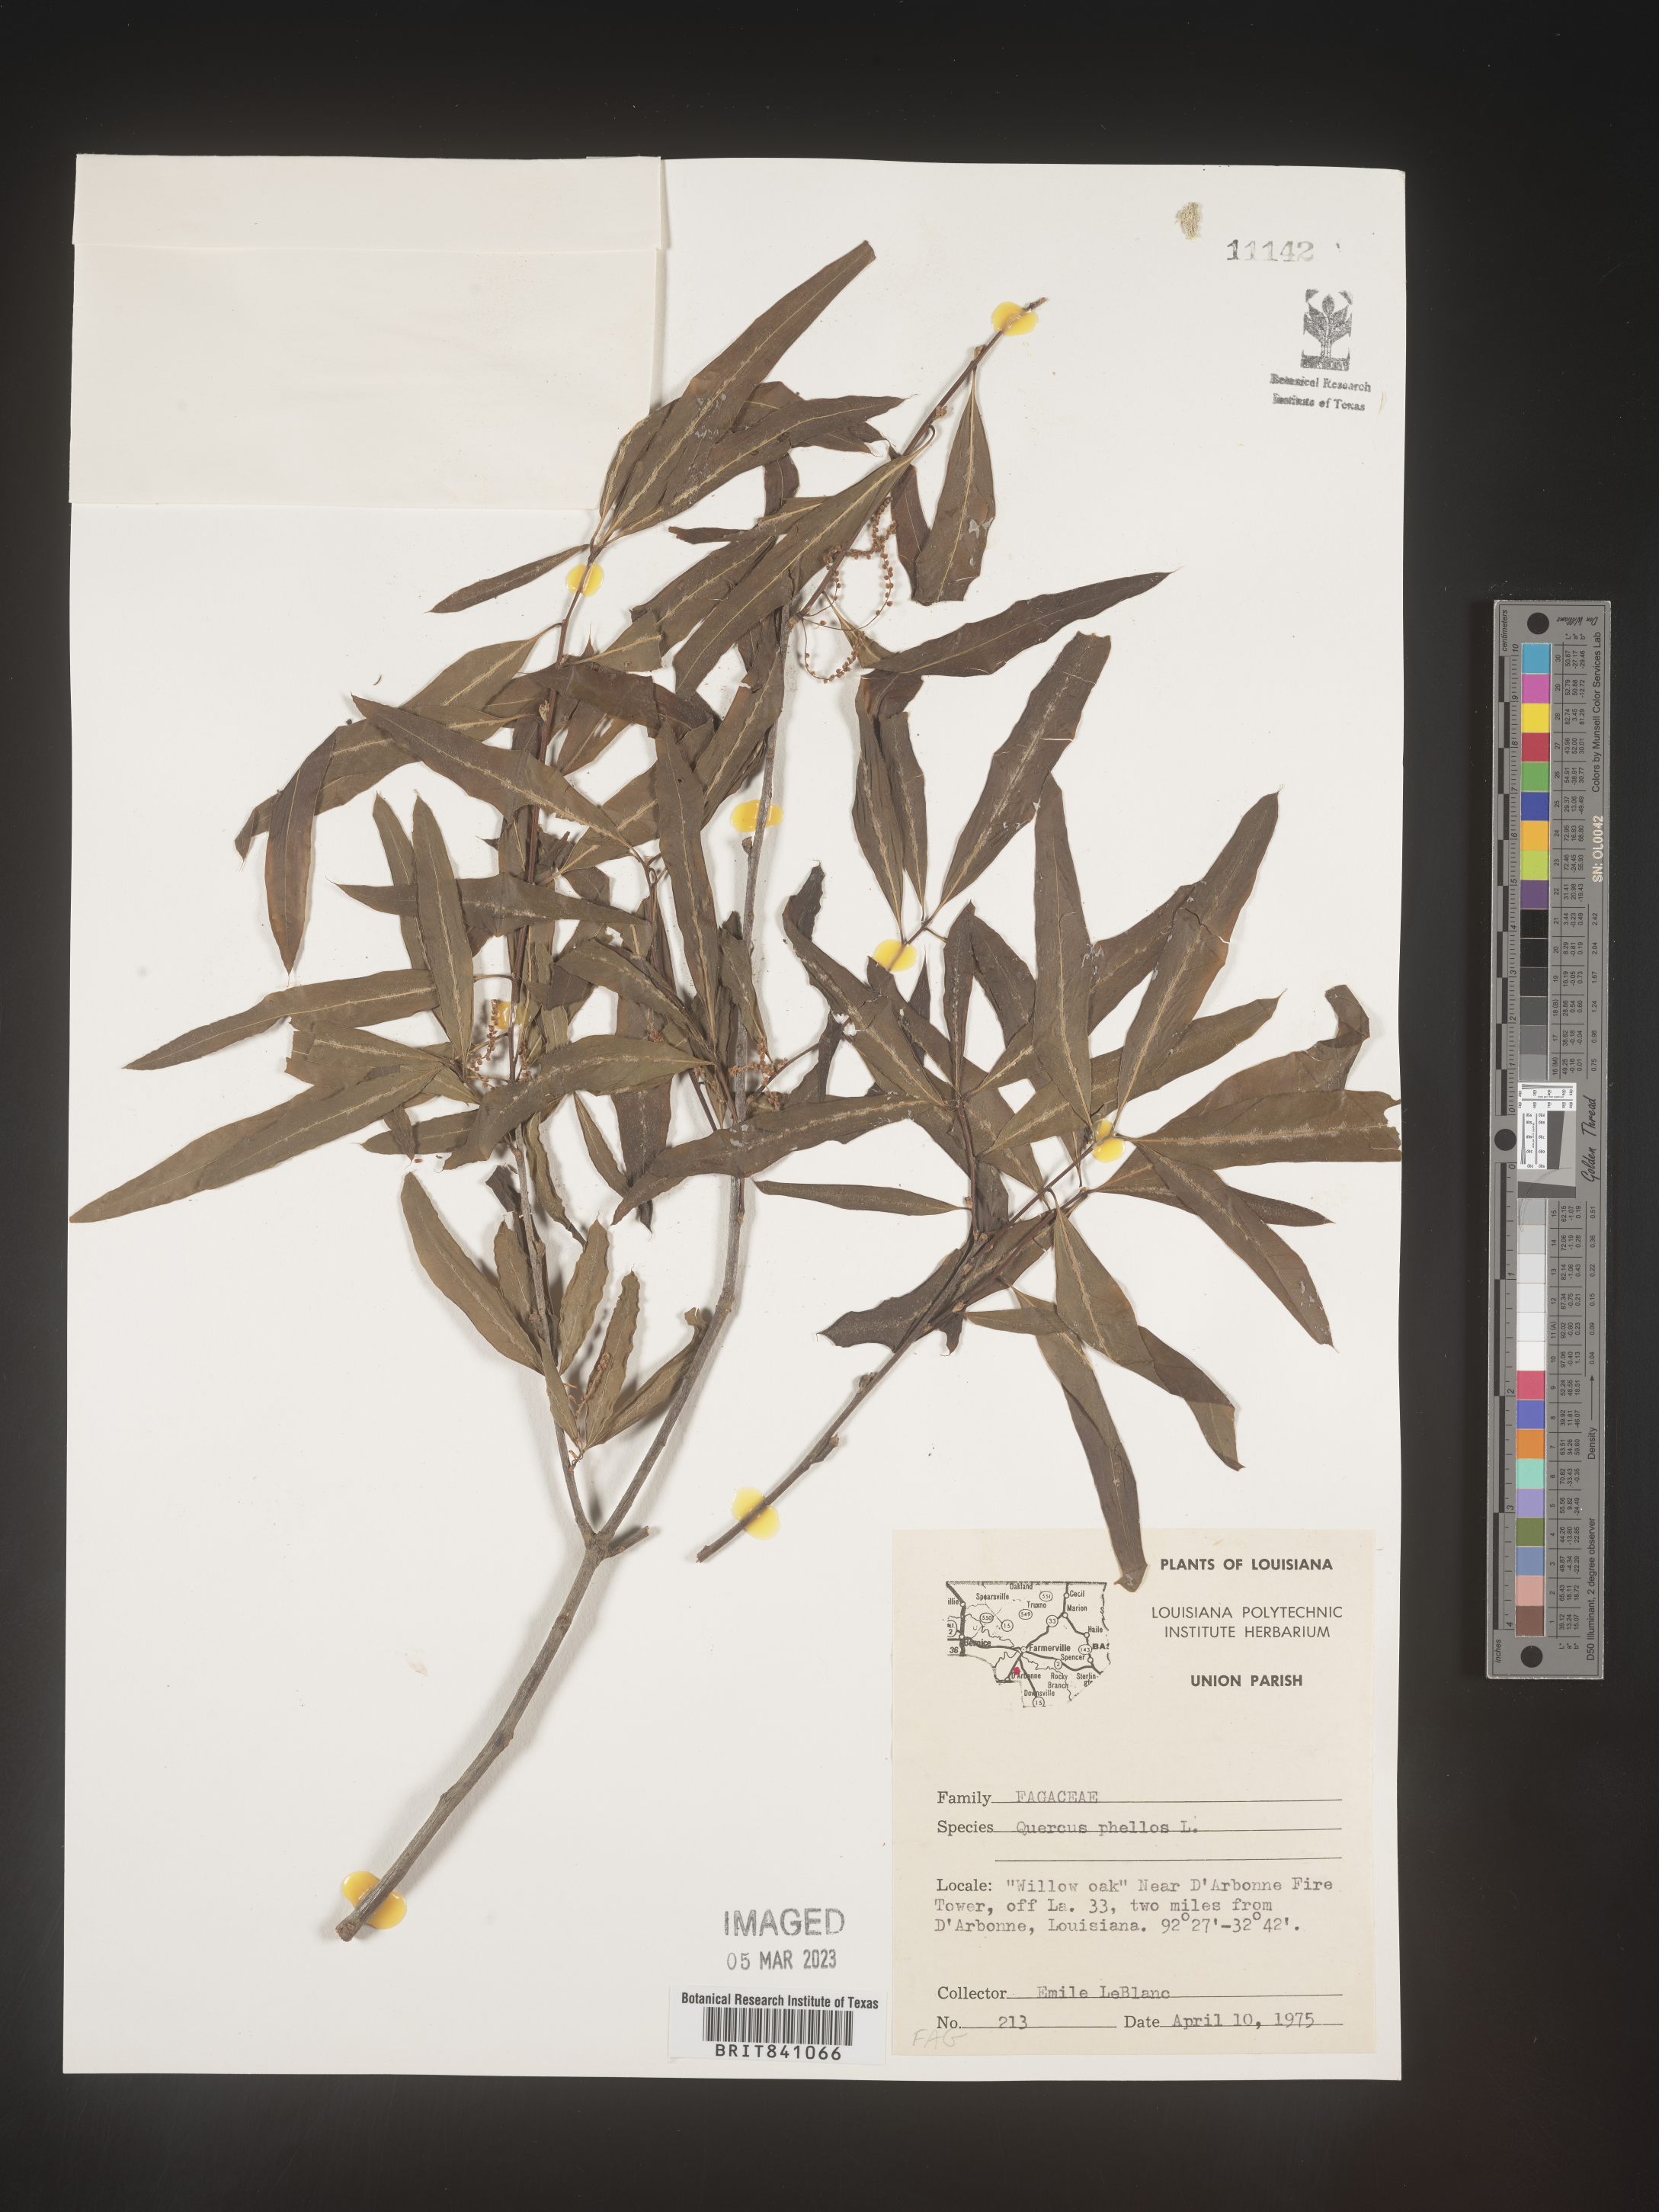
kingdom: Plantae
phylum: Tracheophyta
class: Magnoliopsida
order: Fagales
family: Fagaceae
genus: Quercus
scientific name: Quercus phellos
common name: Willow oak
